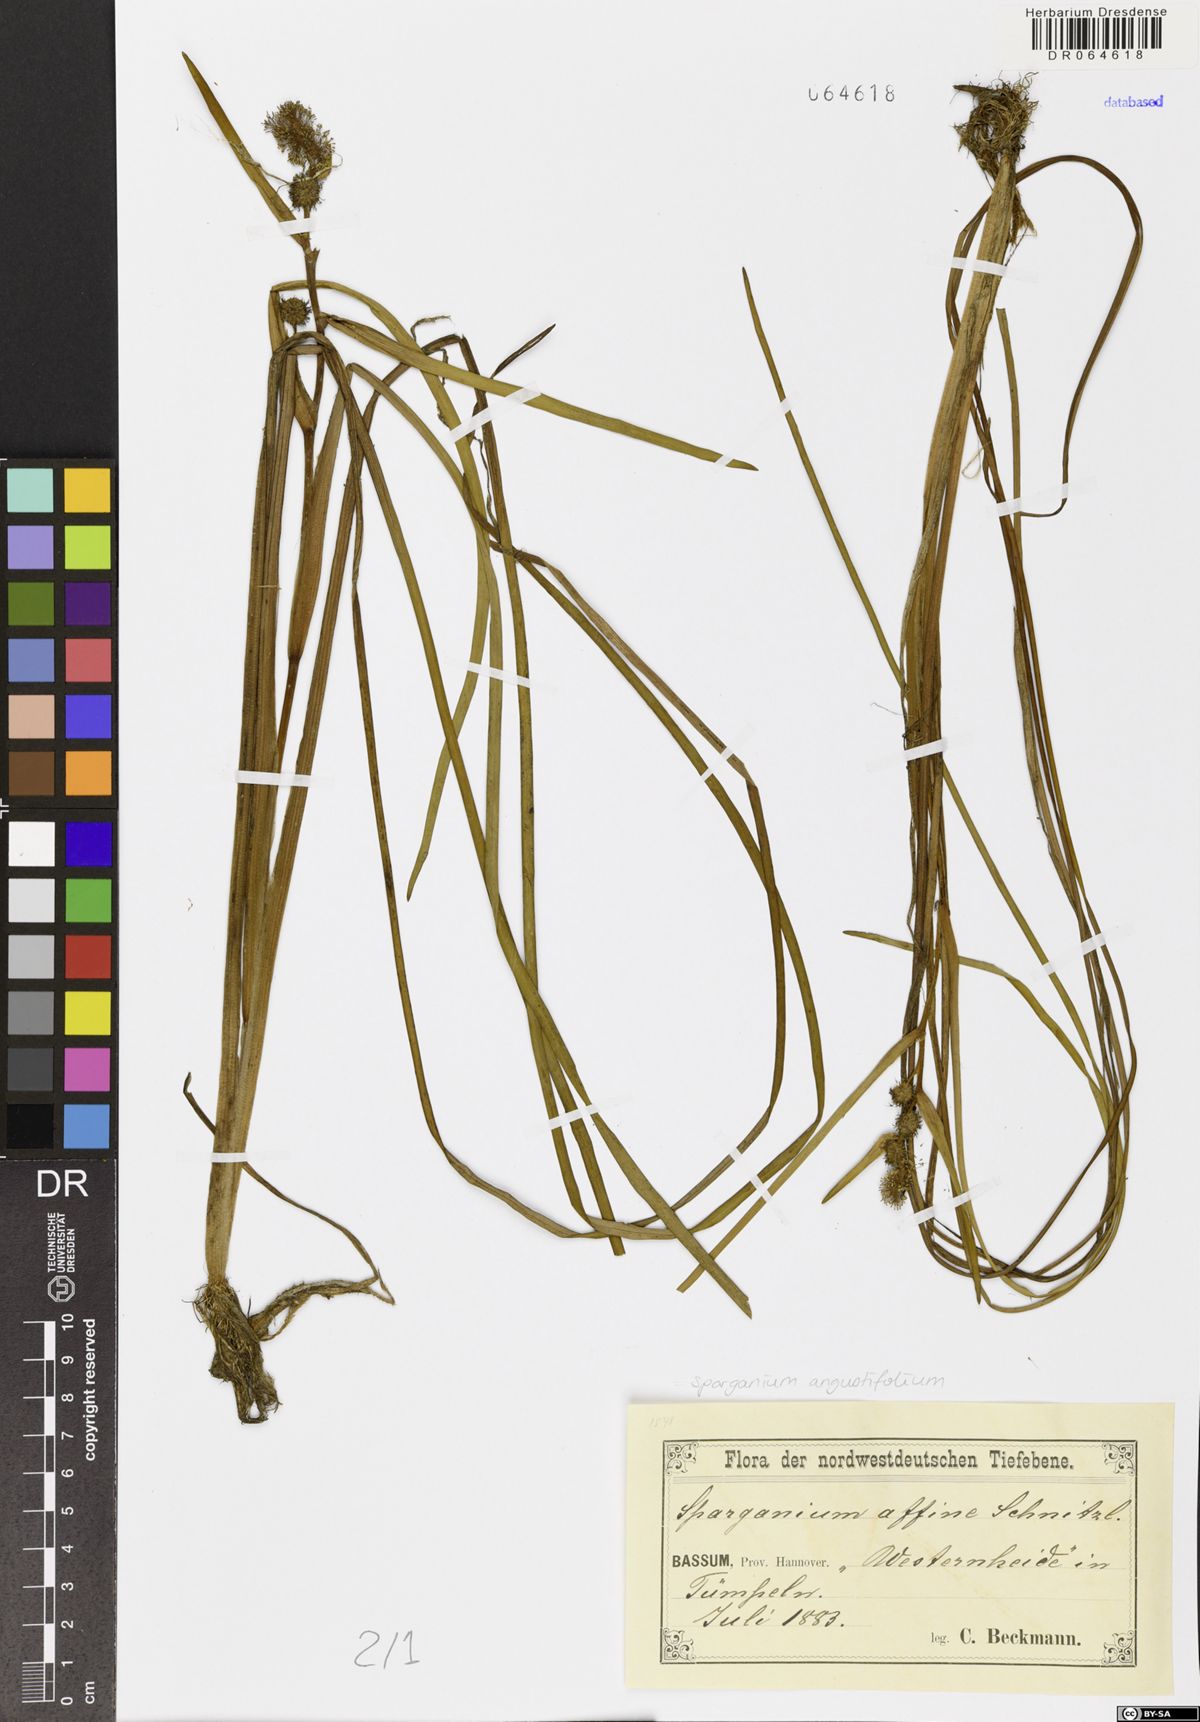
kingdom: Plantae
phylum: Tracheophyta
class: Liliopsida
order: Poales
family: Typhaceae
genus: Sparganium
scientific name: Sparganium angustifolium
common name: Floating bur-reed
